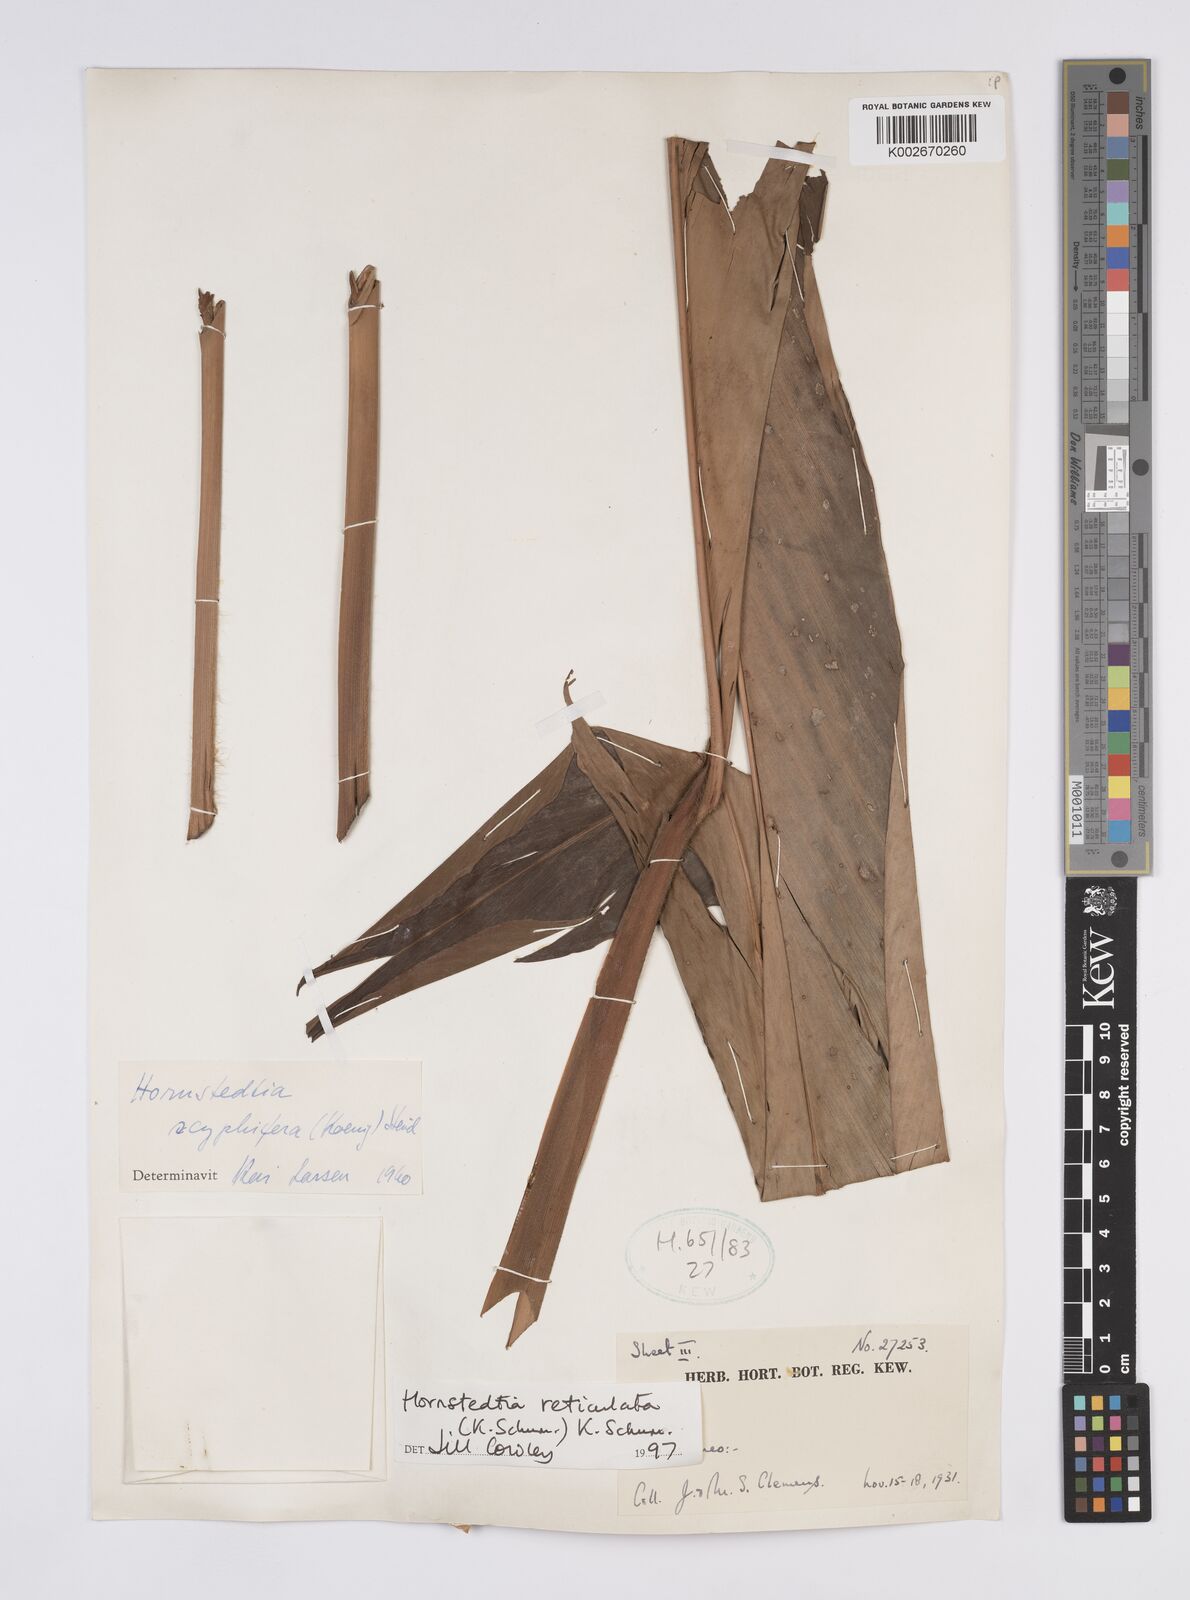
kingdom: Plantae
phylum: Tracheophyta
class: Liliopsida
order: Zingiberales
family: Zingiberaceae
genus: Hornstedtia
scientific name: Hornstedtia reticulata
